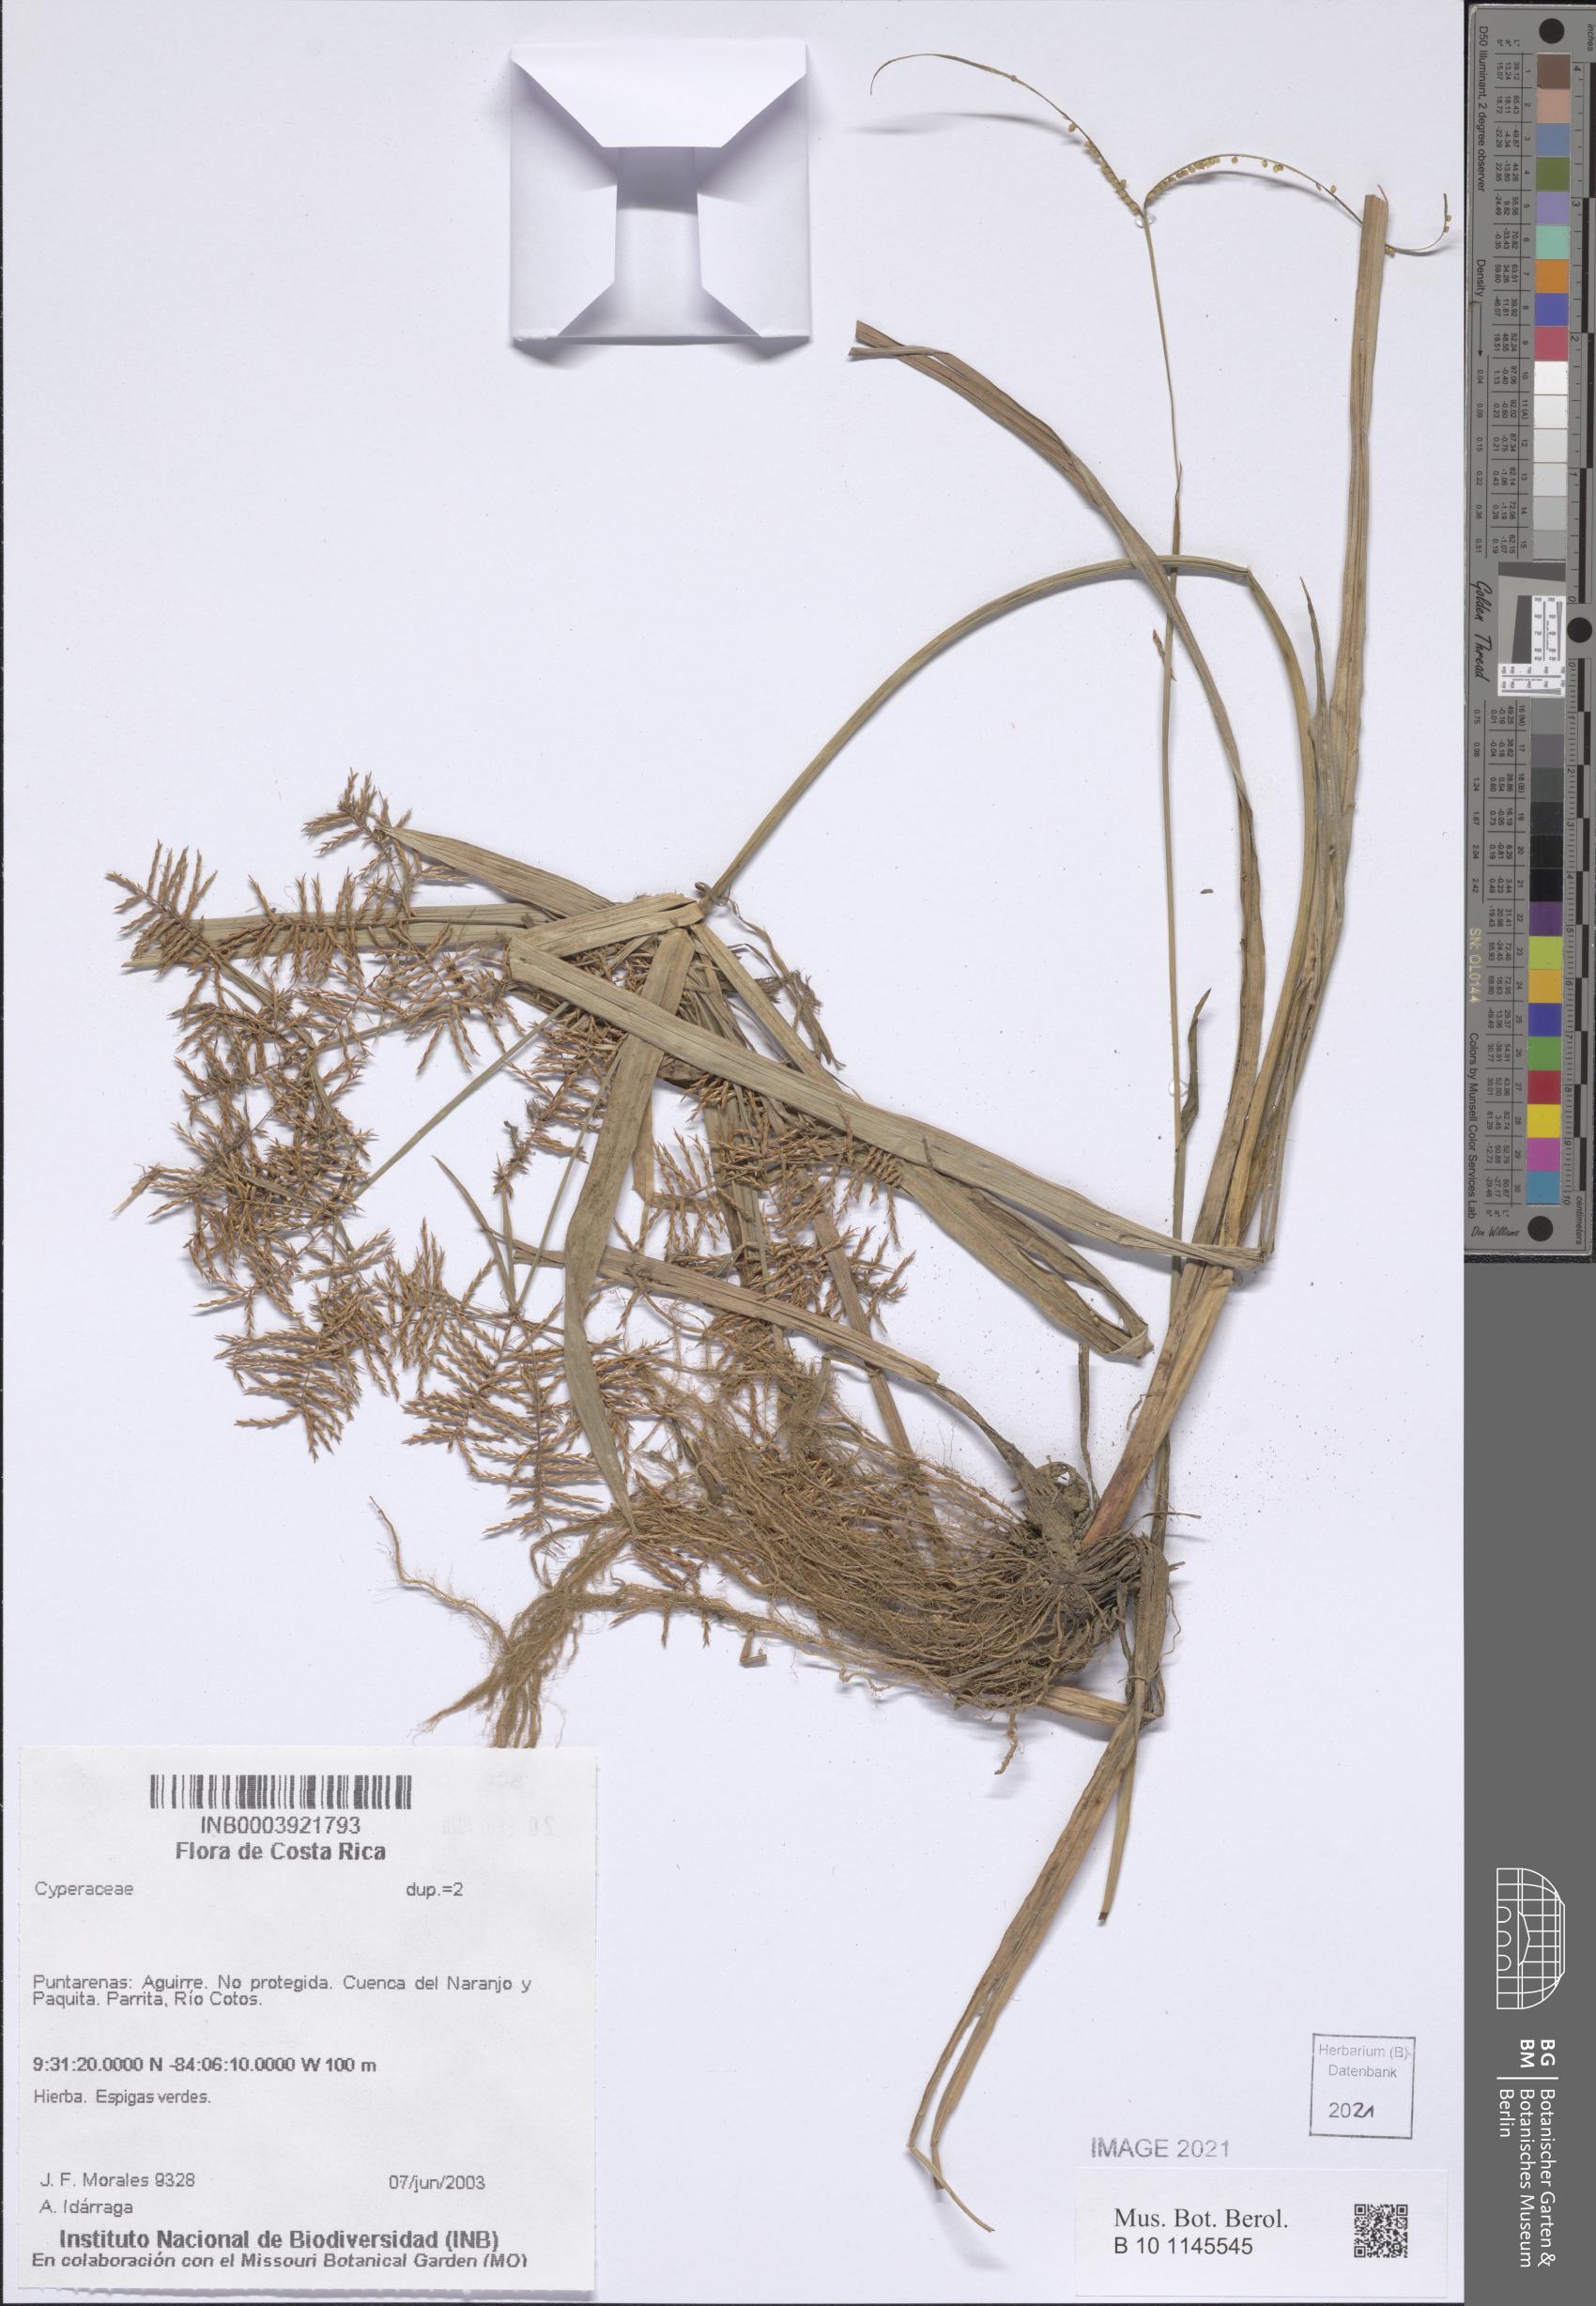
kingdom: Plantae
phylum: Tracheophyta
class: Liliopsida
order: Poales
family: Cyperaceae
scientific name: Cyperaceae
